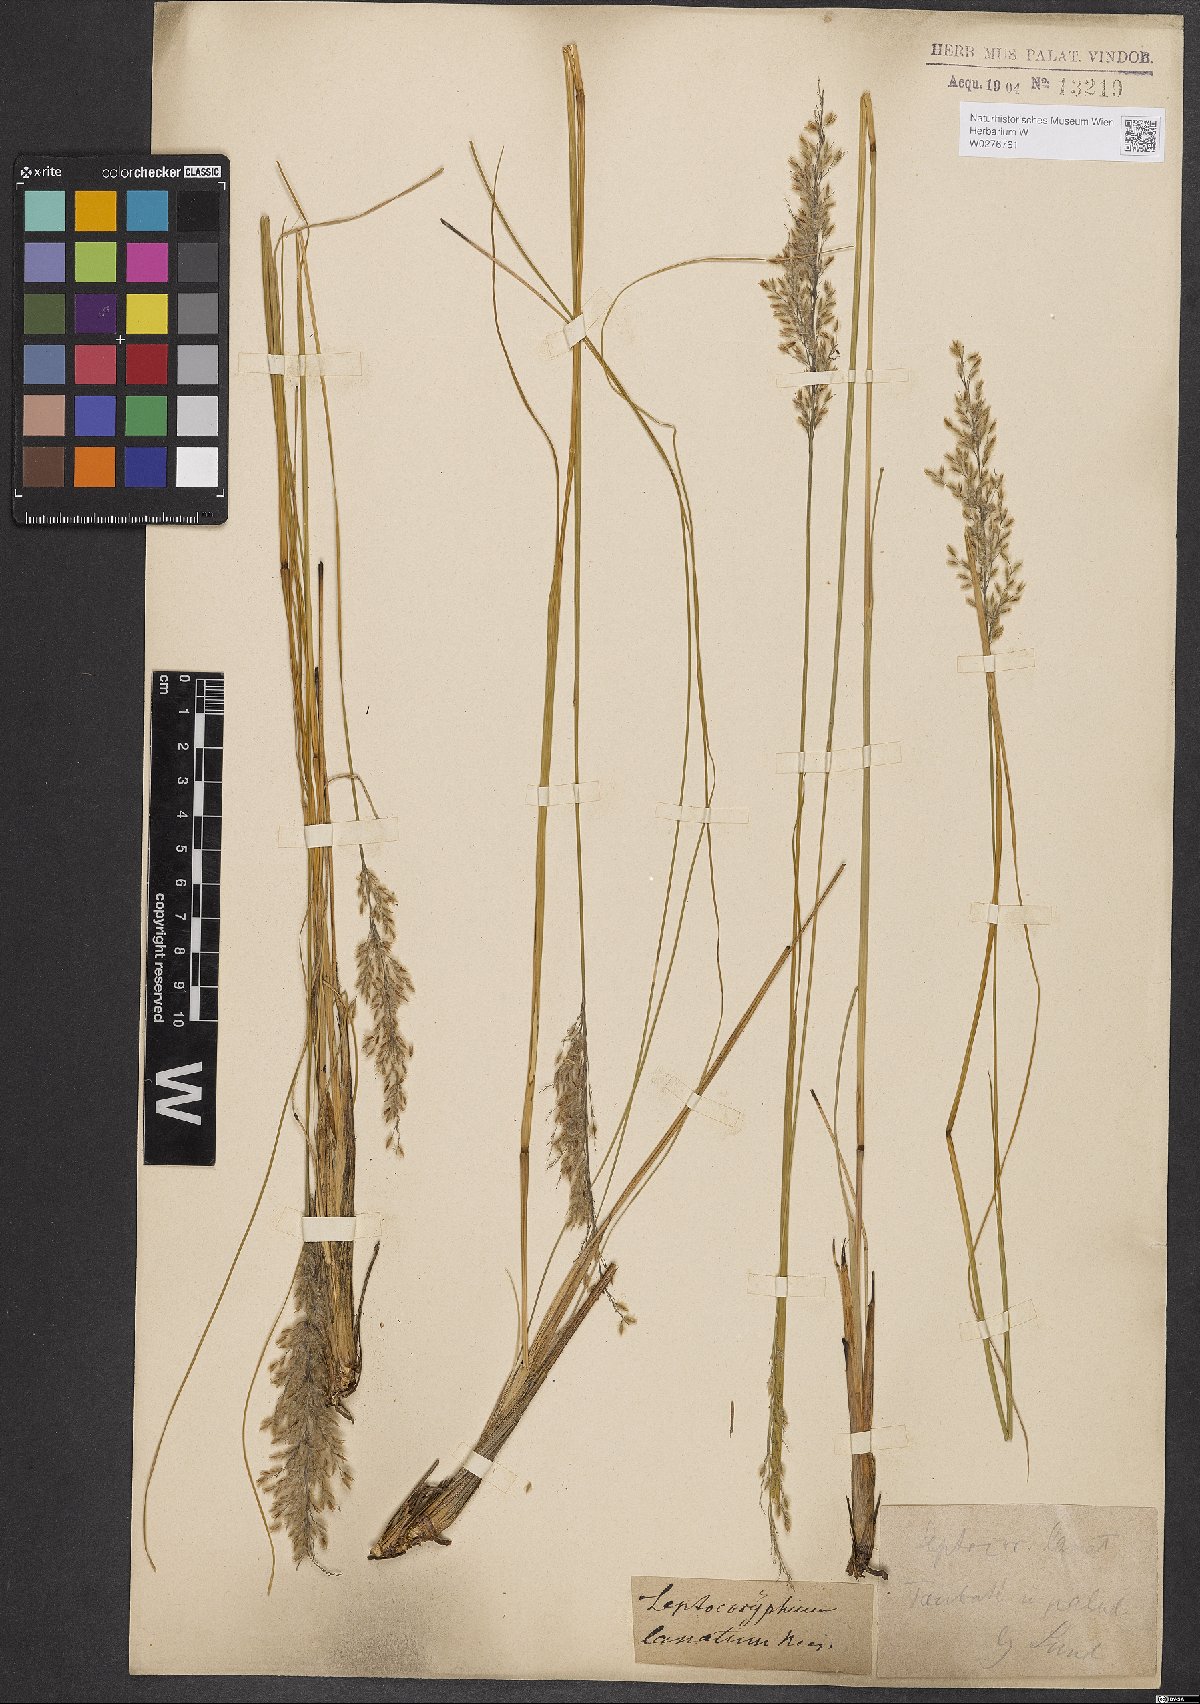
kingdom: Plantae
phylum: Tracheophyta
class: Liliopsida
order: Poales
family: Poaceae
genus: Anthaenantia
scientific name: Anthaenantia lanata
